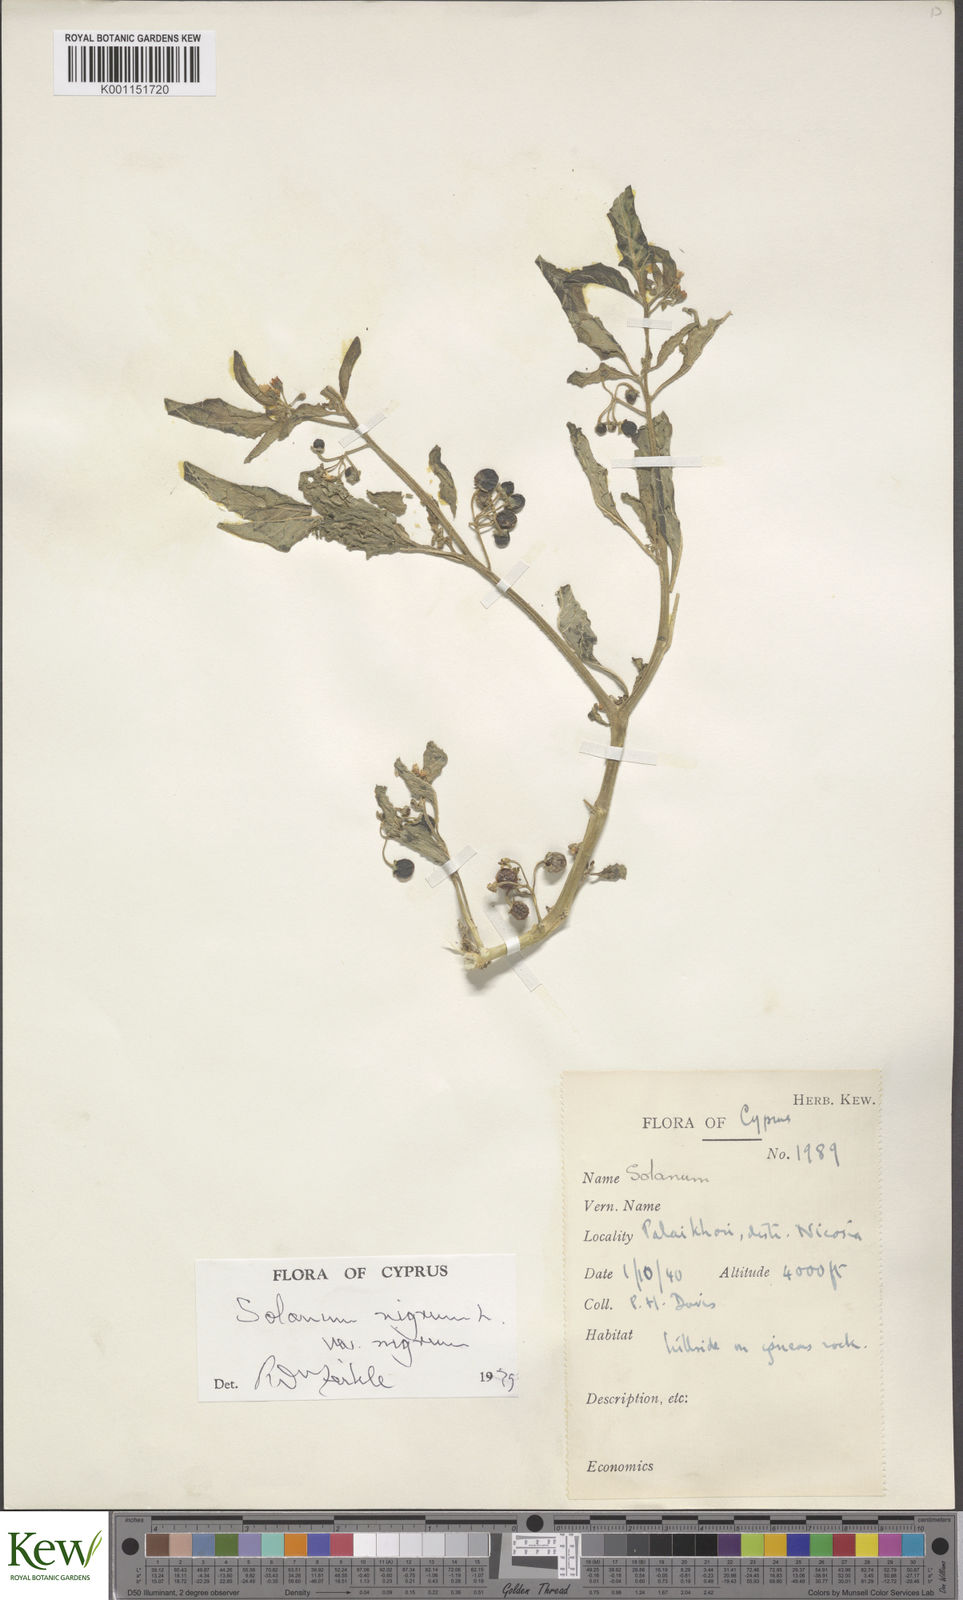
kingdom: Plantae
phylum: Tracheophyta
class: Magnoliopsida
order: Solanales
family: Solanaceae
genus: Solanum
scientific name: Solanum nigrum
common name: Black nightshade
